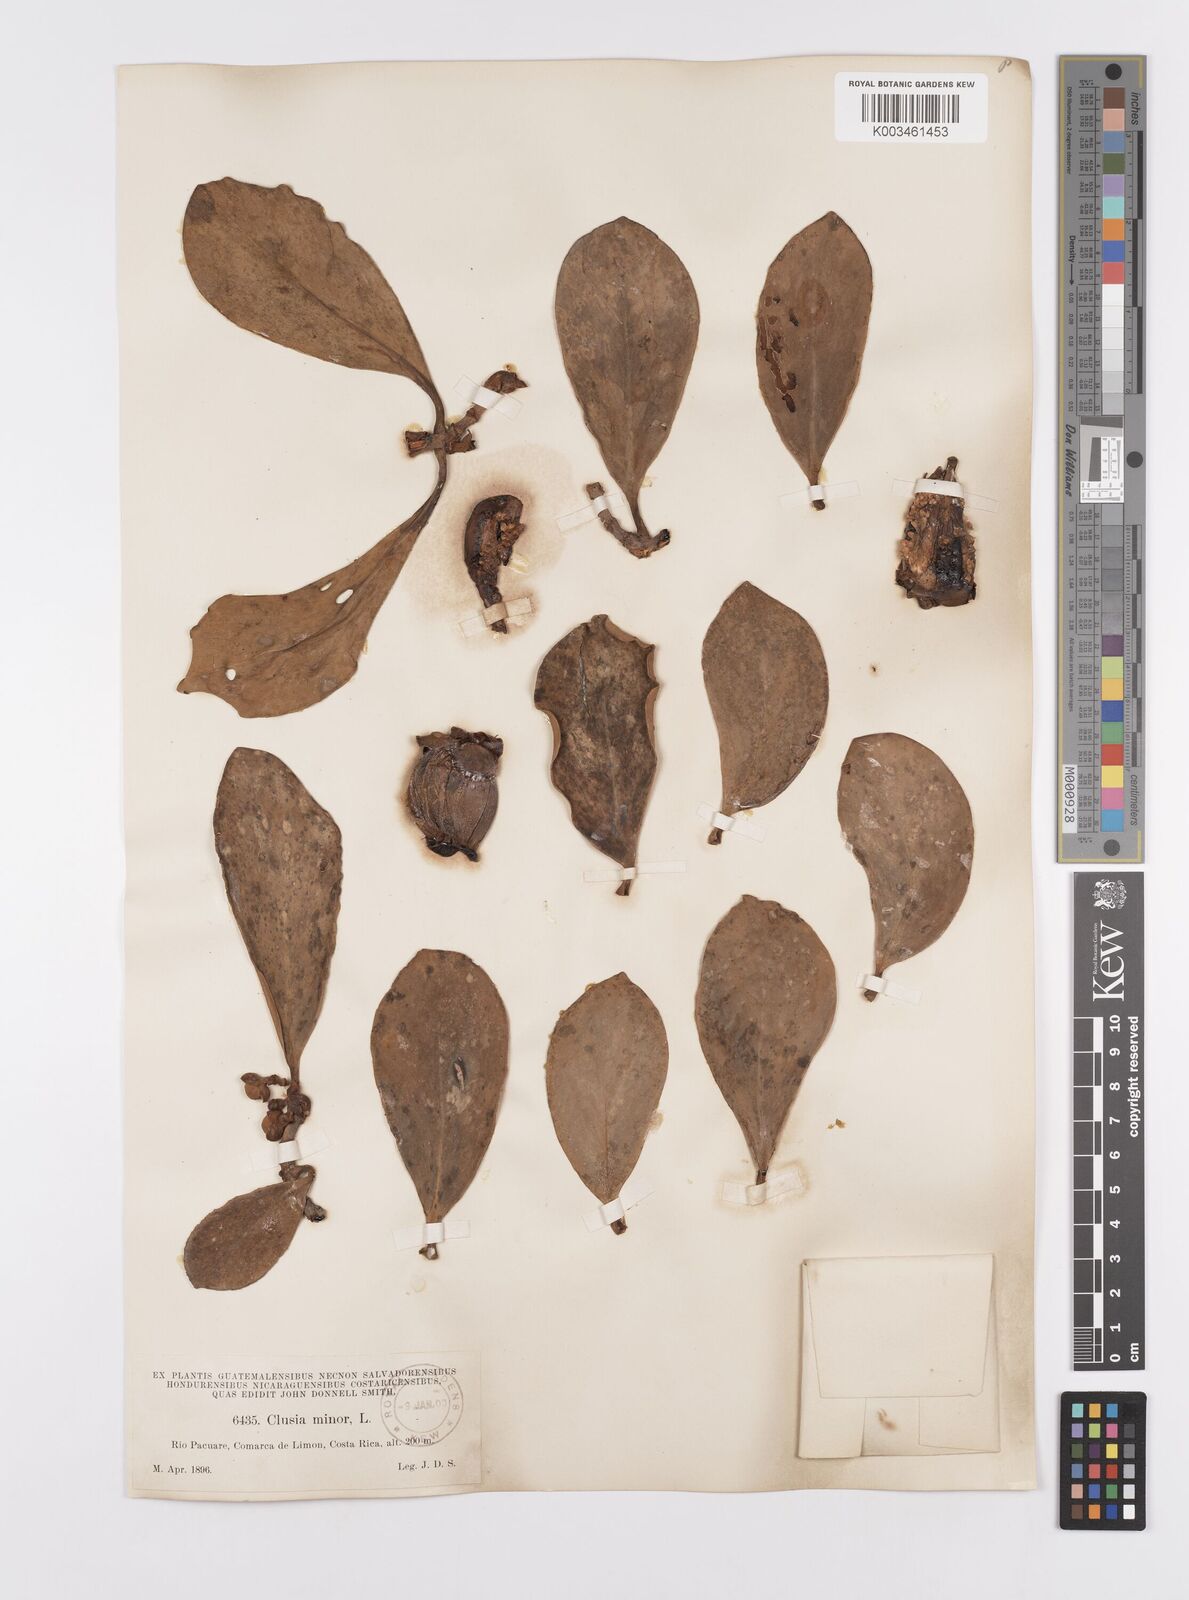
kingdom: Plantae
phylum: Tracheophyta
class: Magnoliopsida
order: Malpighiales
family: Clusiaceae
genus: Clusia
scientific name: Clusia minor
